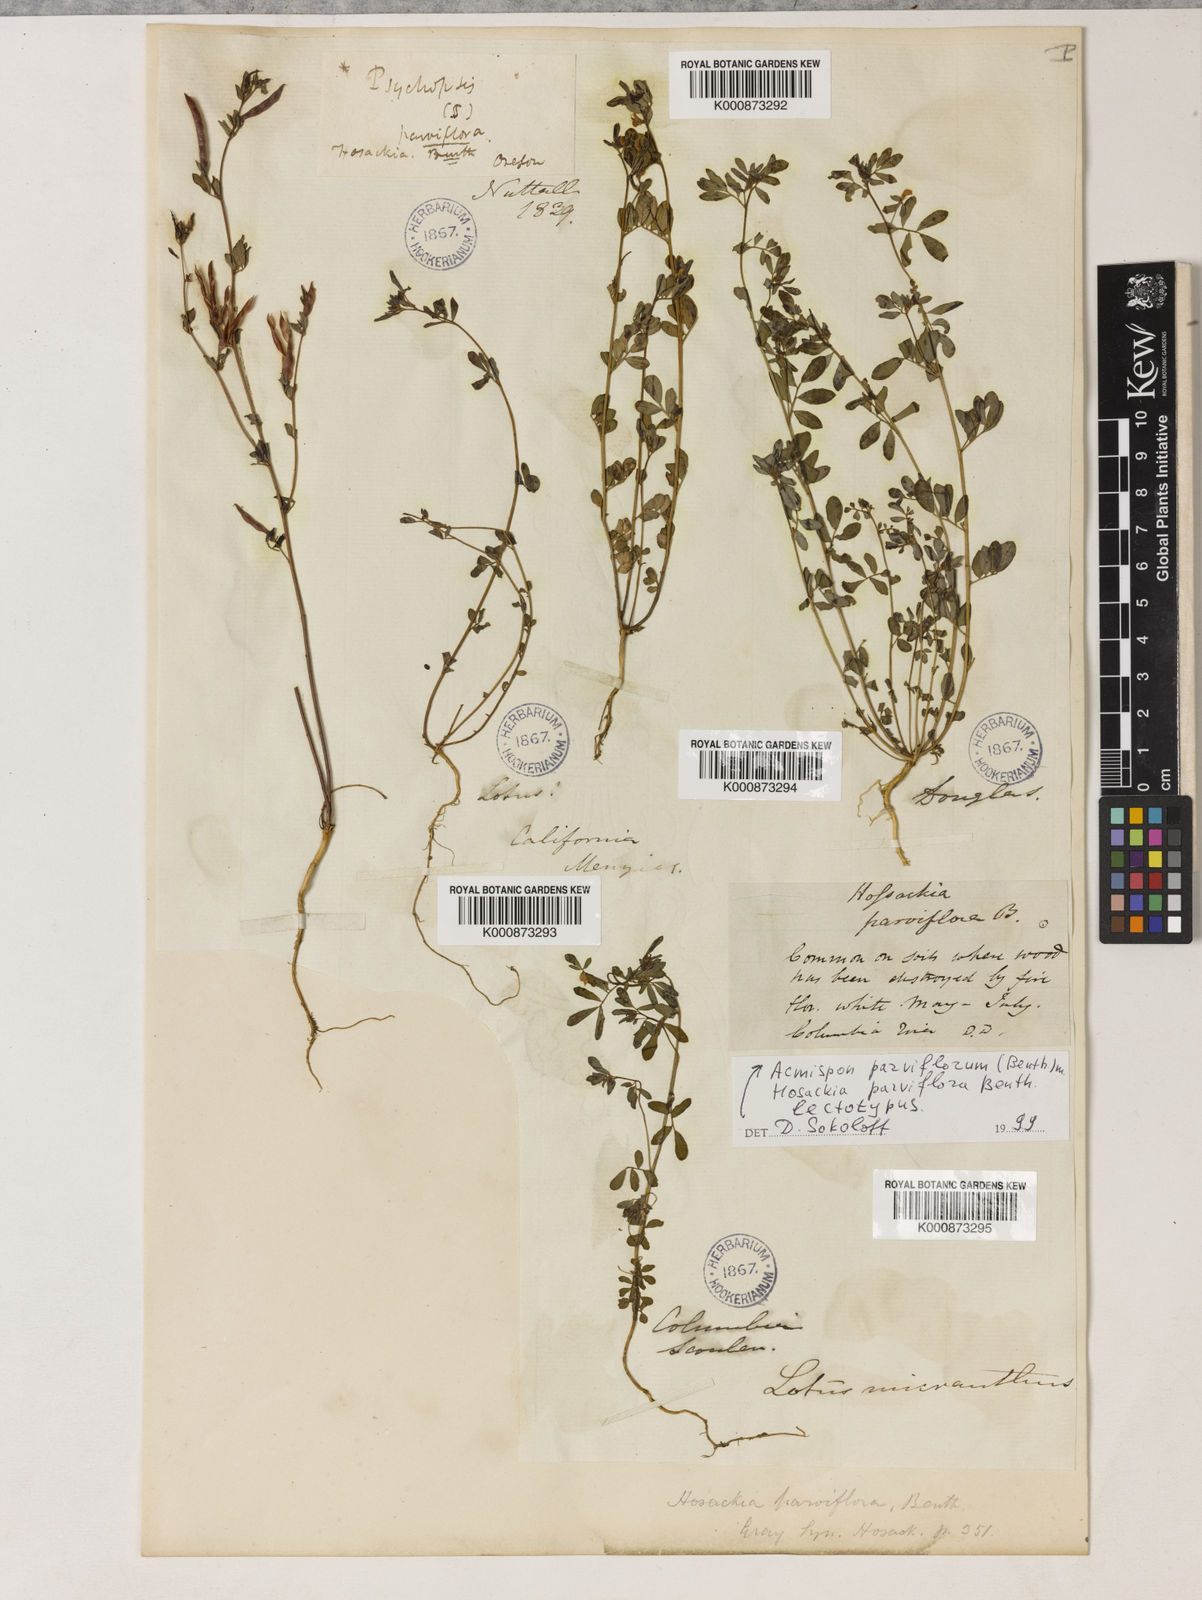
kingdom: Plantae
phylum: Tracheophyta
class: Magnoliopsida
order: Fabales
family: Fabaceae
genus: Acmispon
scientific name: Acmispon parviflorus
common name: Desert deer-vetch
